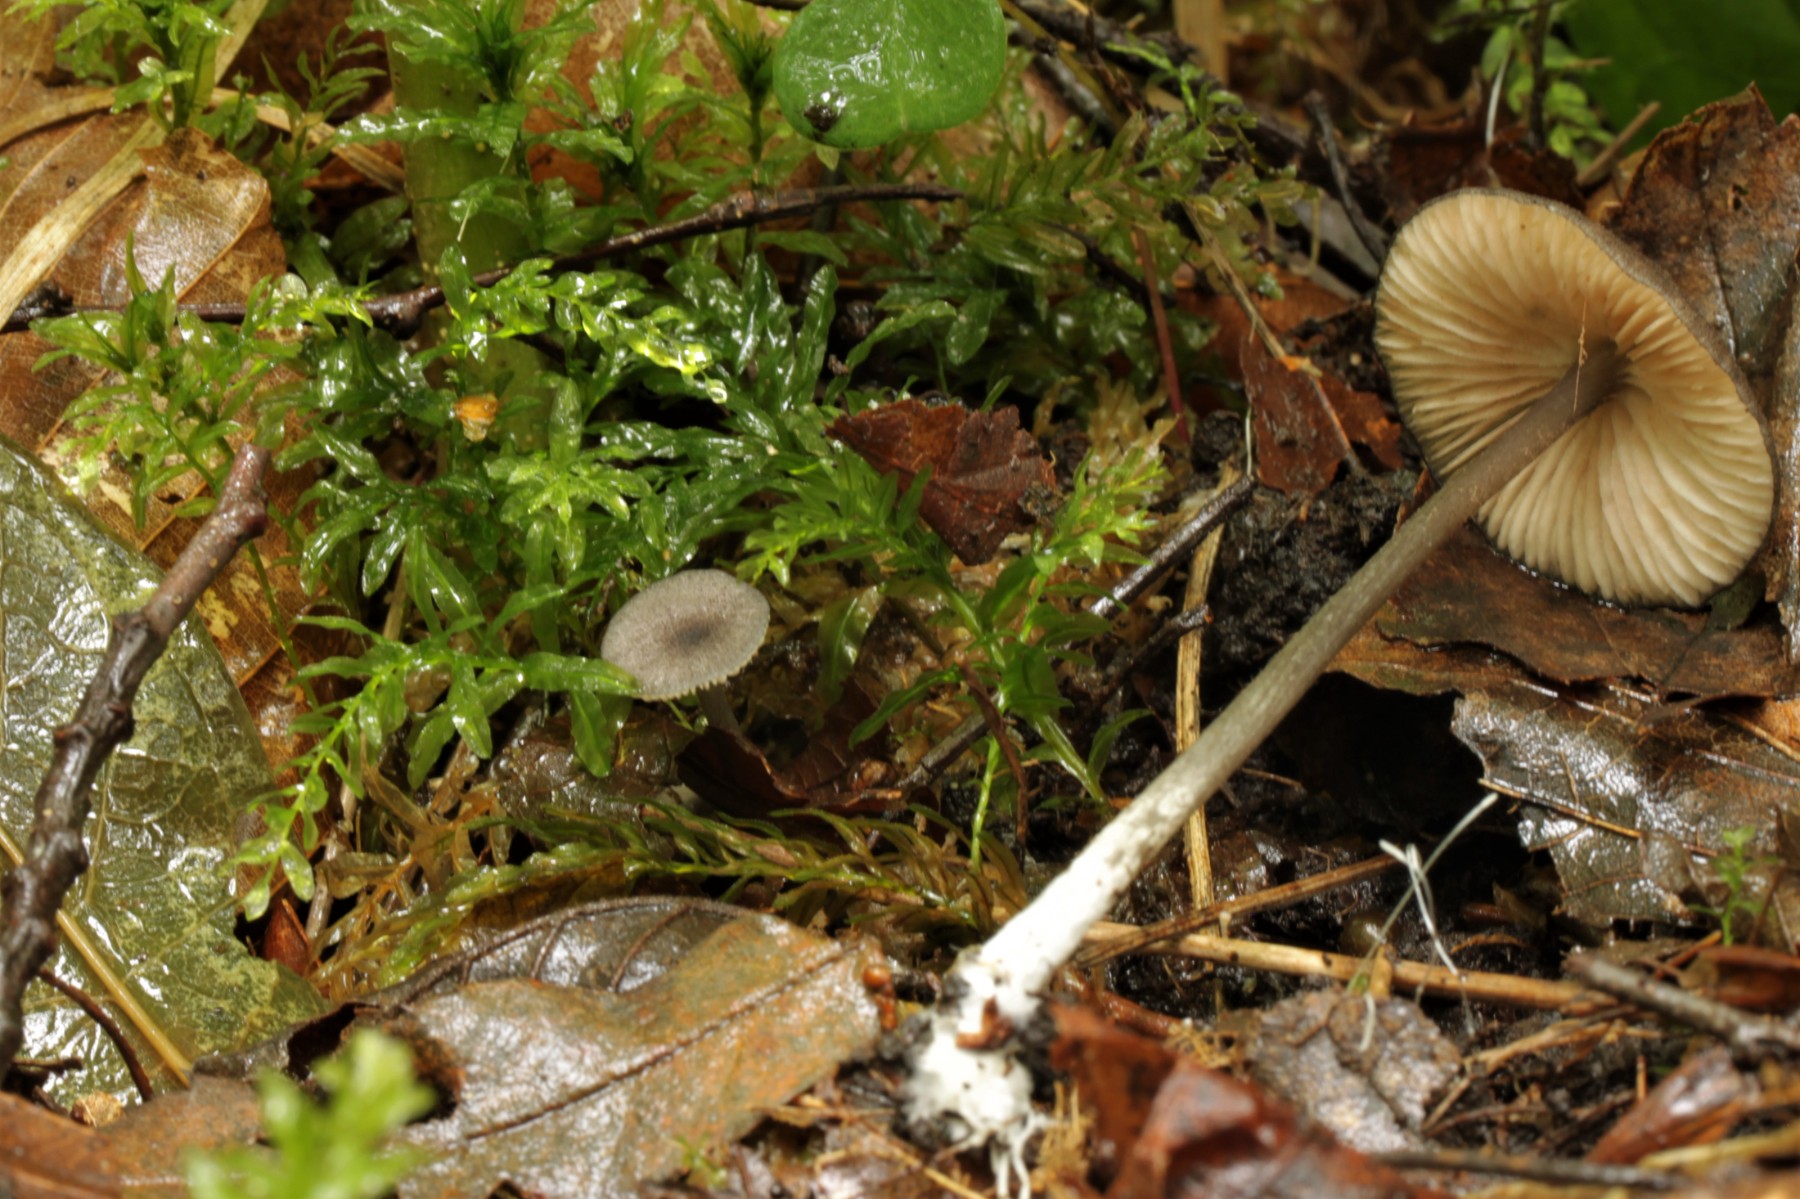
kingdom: Fungi
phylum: Basidiomycota
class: Agaricomycetes
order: Agaricales
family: Entolomataceae
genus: Entoloma
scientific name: Entoloma nordlandicum
